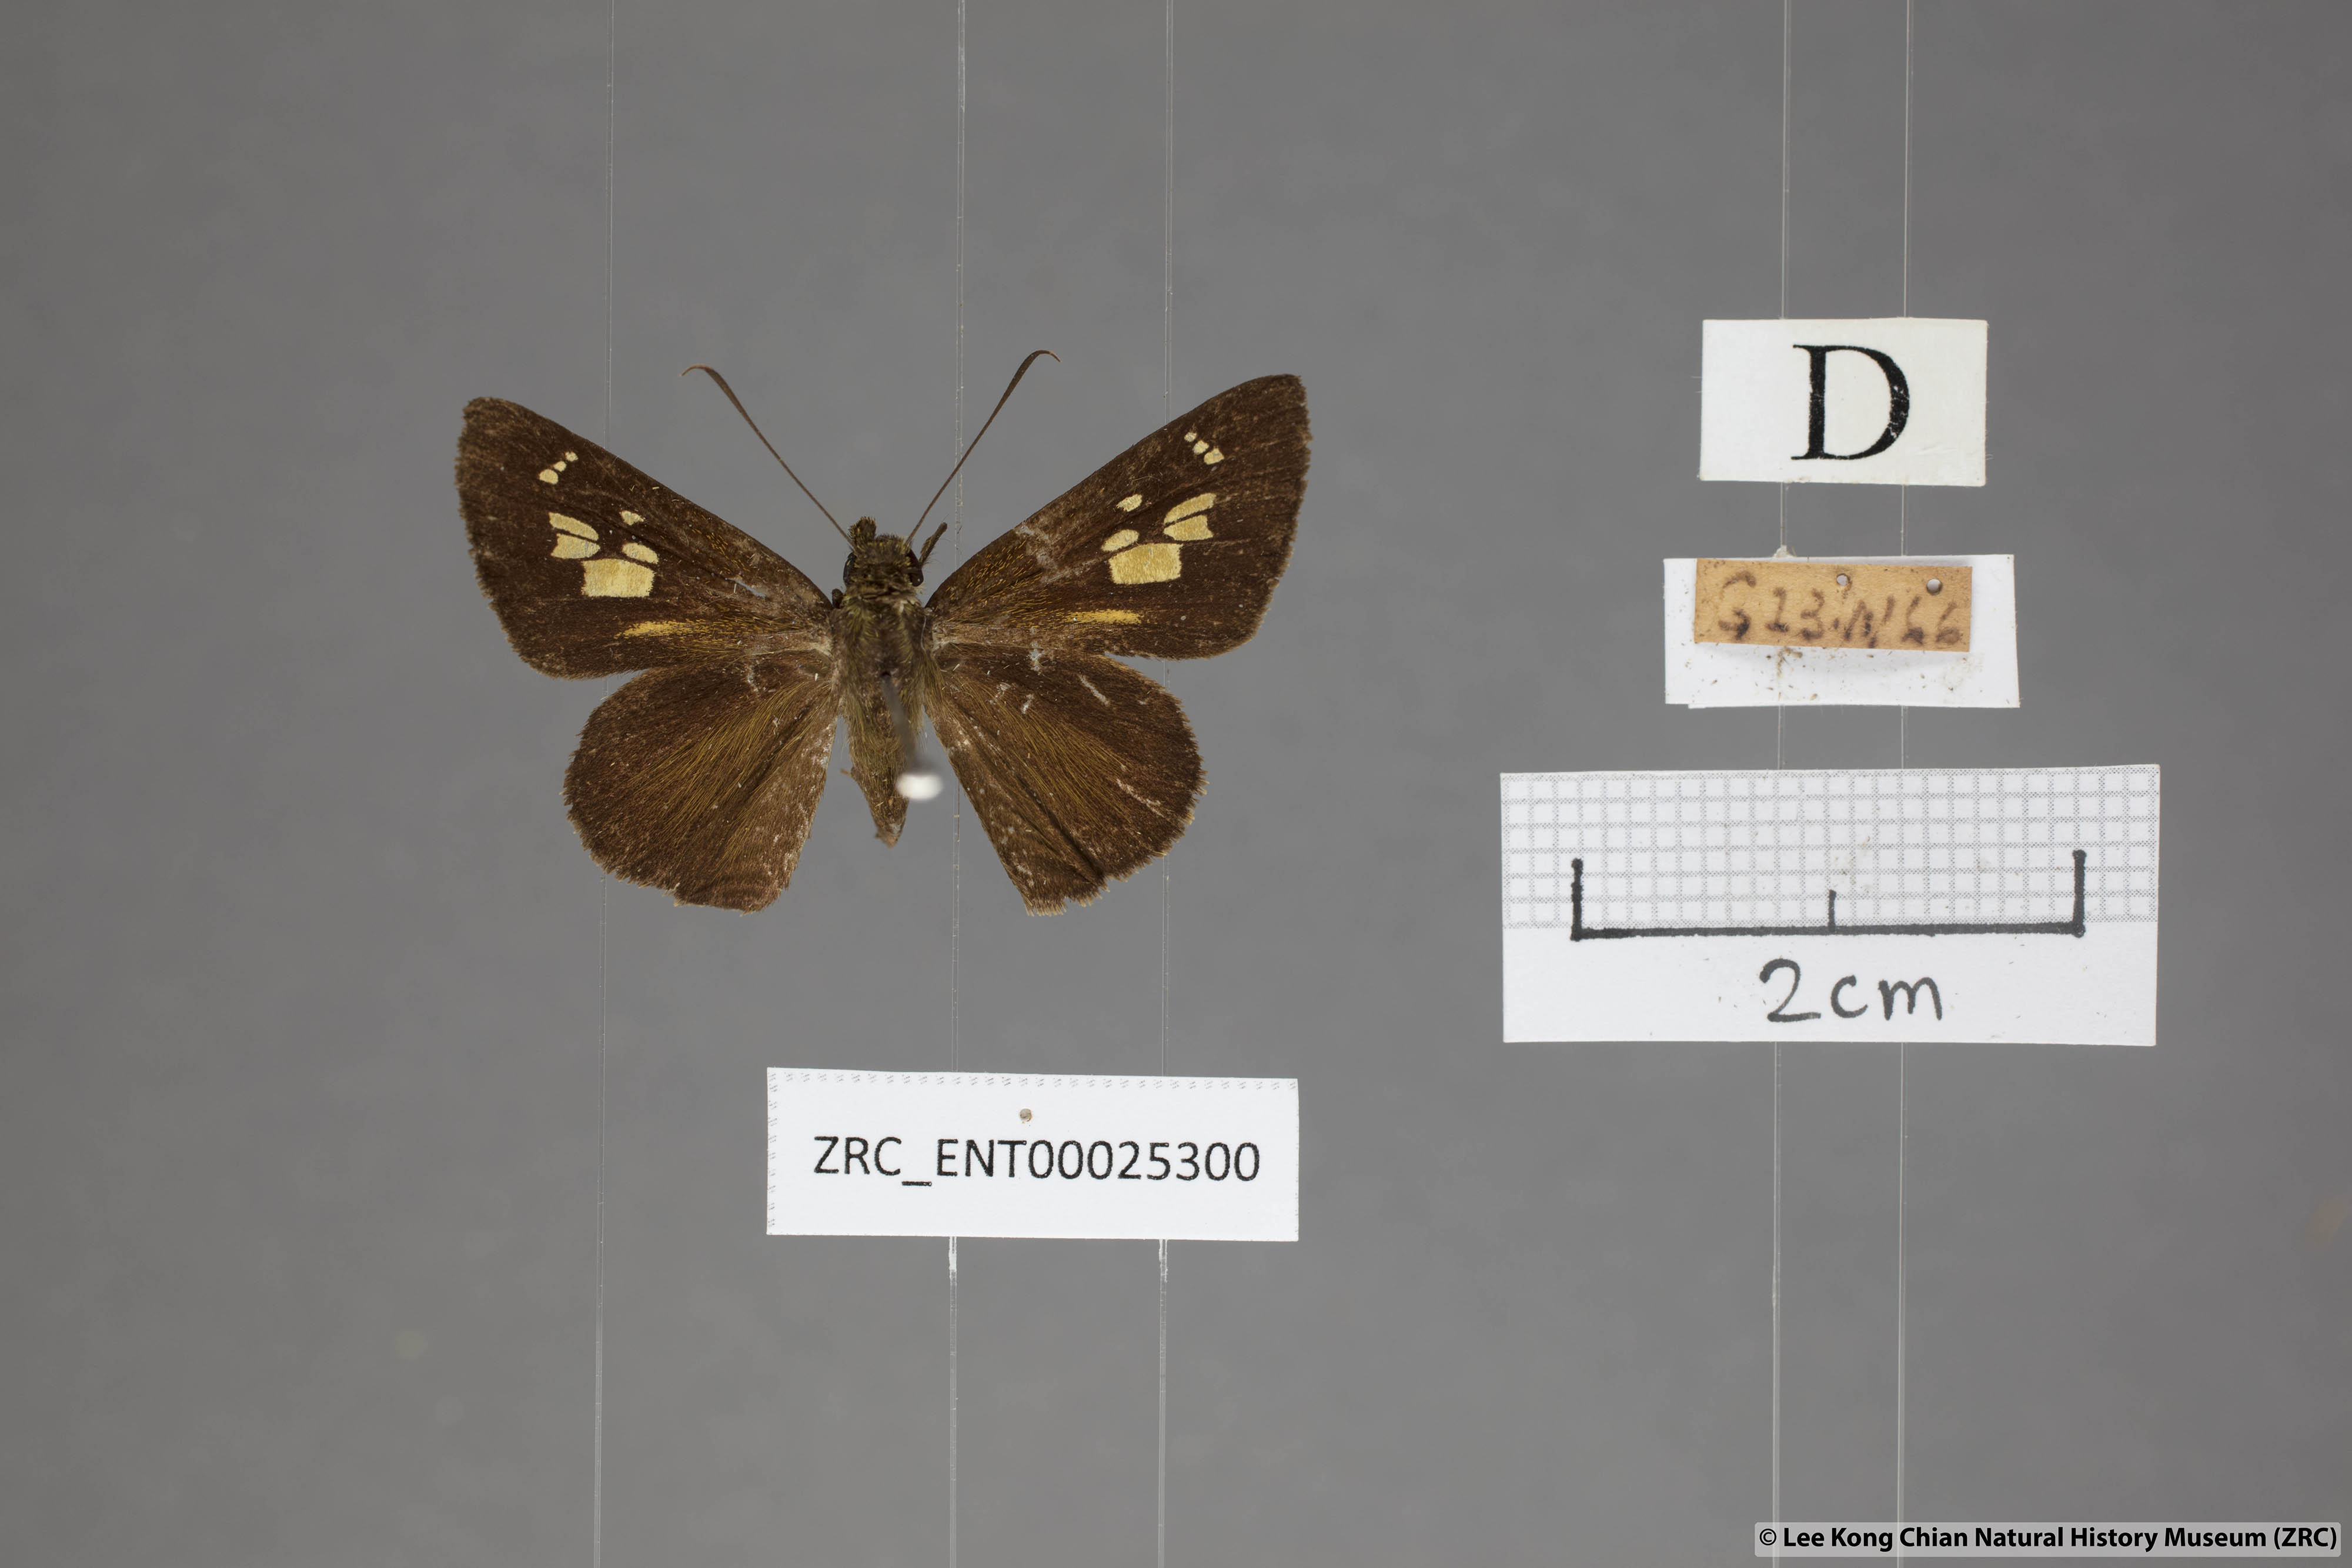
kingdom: Animalia
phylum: Arthropoda
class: Insecta
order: Lepidoptera
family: Hesperiidae
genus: Pemara
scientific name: Pemara pugnans
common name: Pugnacious lancer
